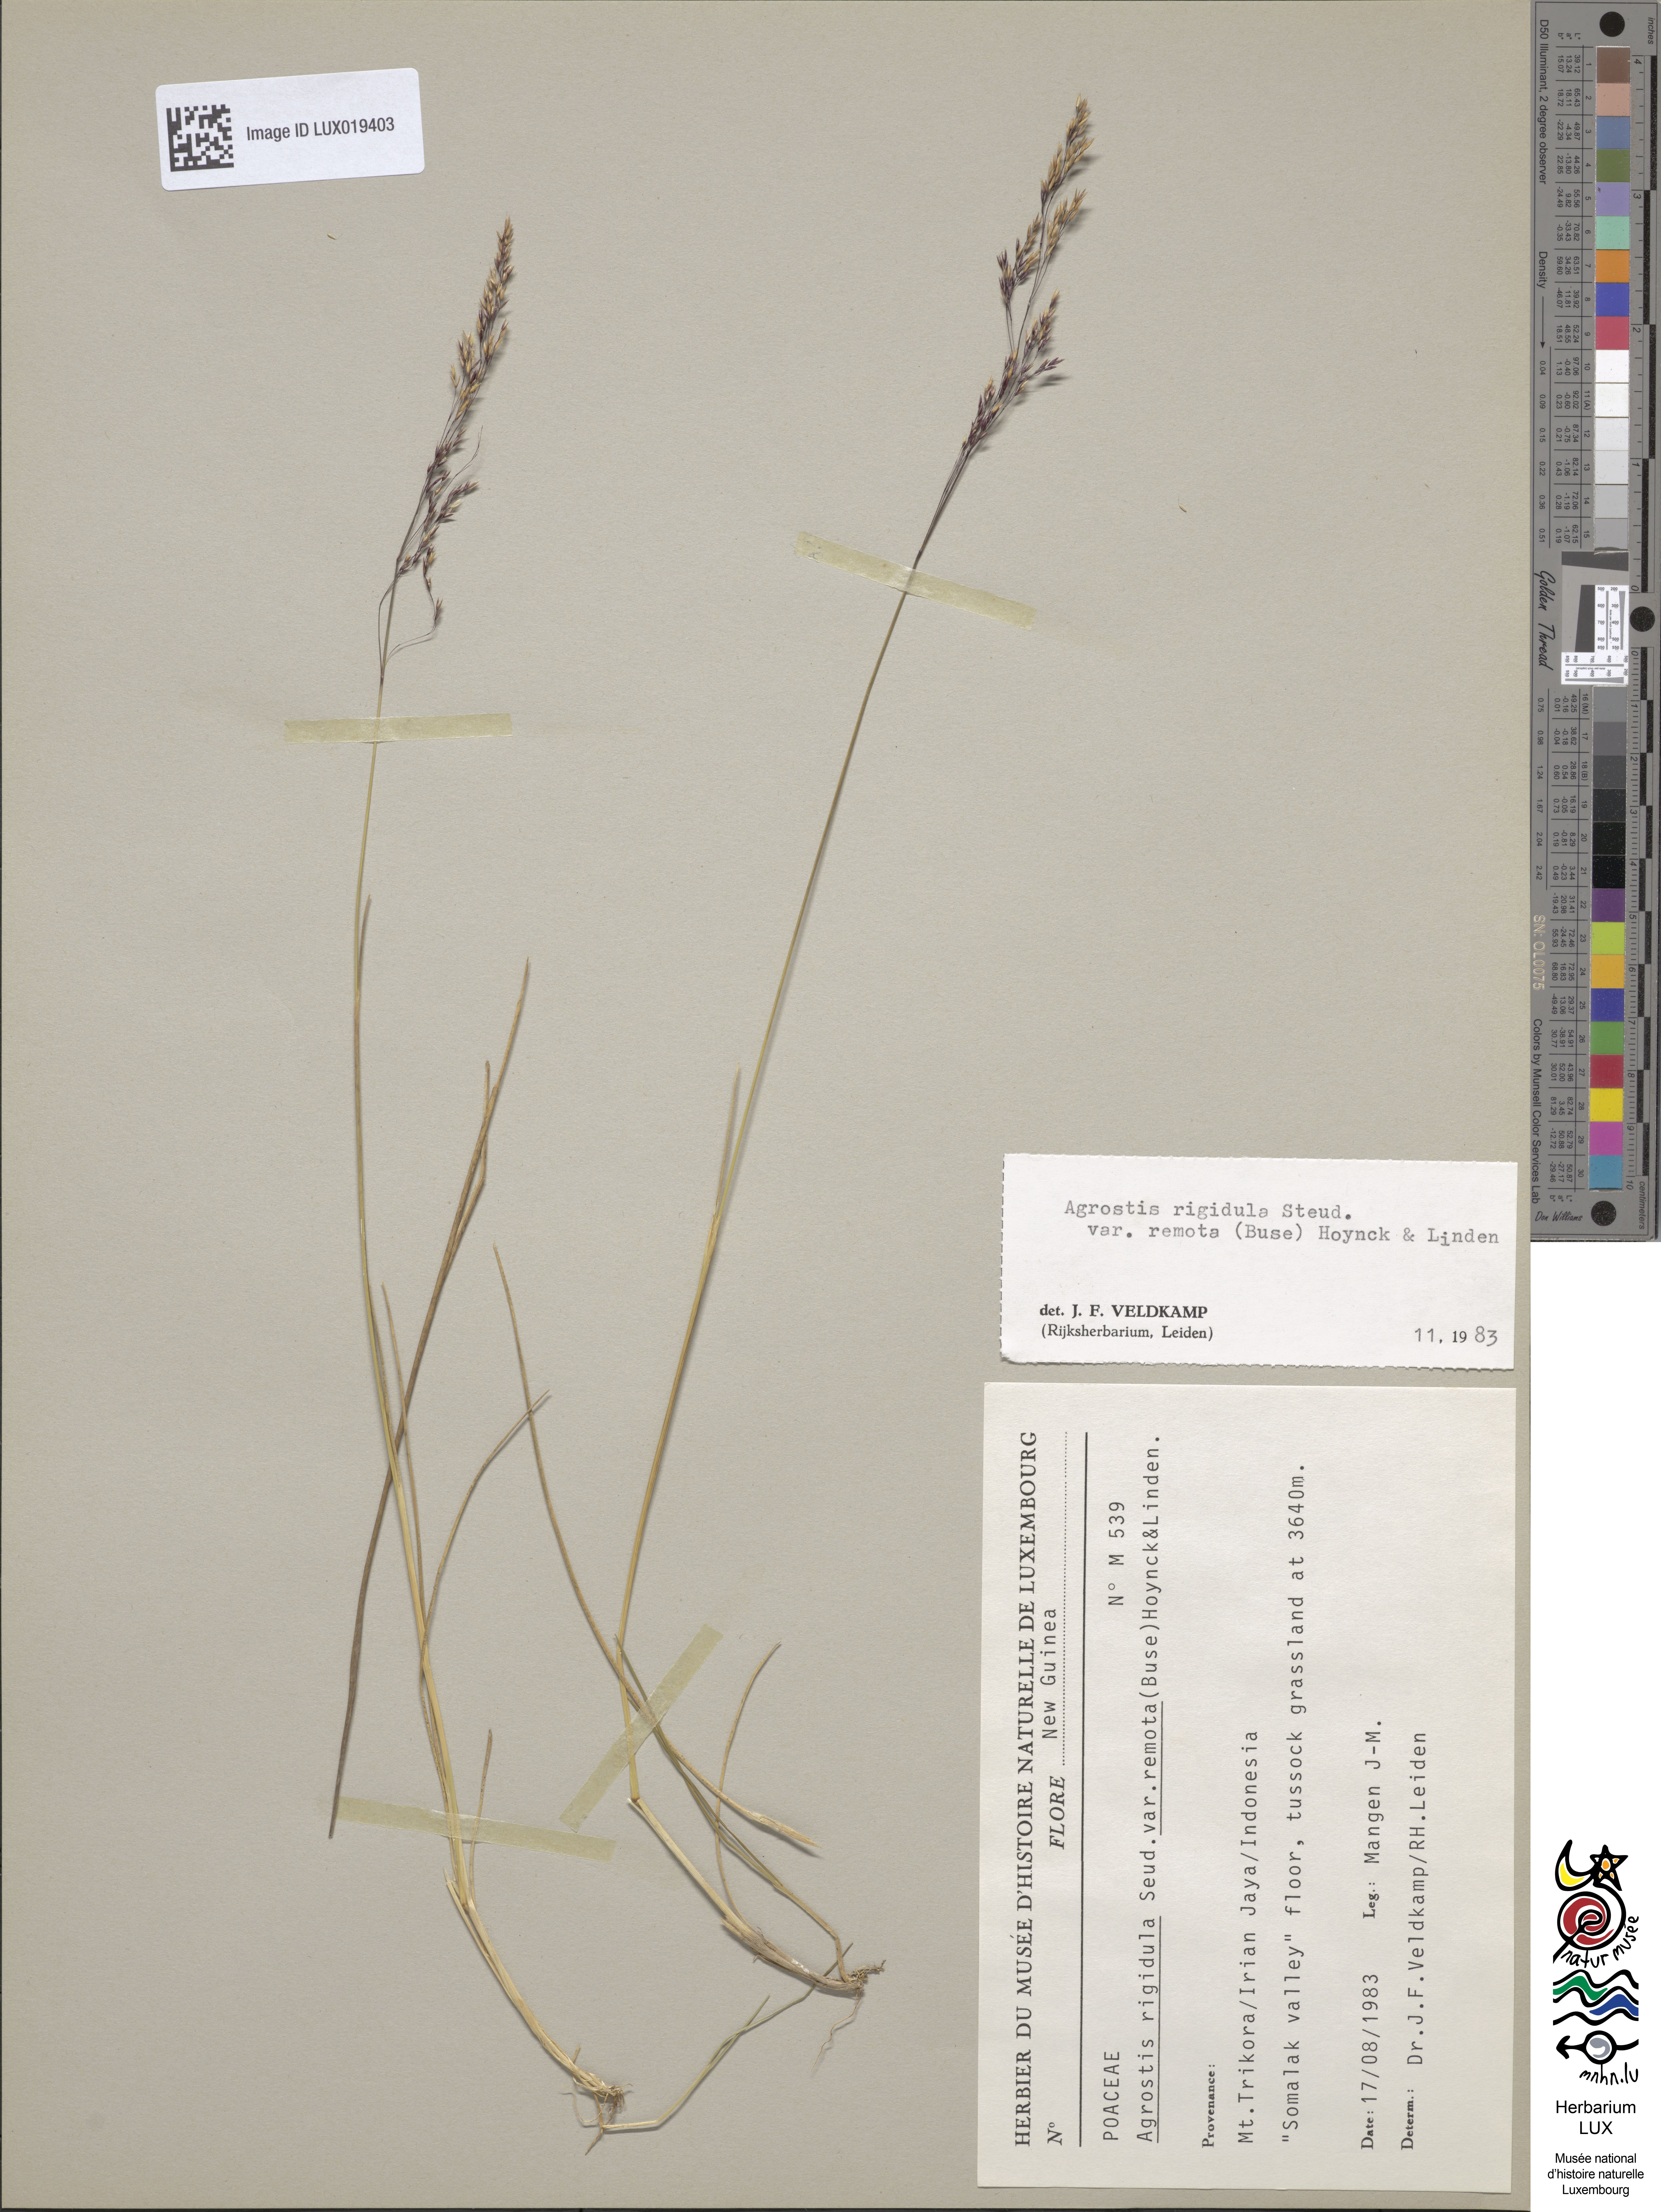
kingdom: Plantae
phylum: Tracheophyta
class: Liliopsida
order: Poales
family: Poaceae
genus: Agrostis
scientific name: Agrostis infirma
